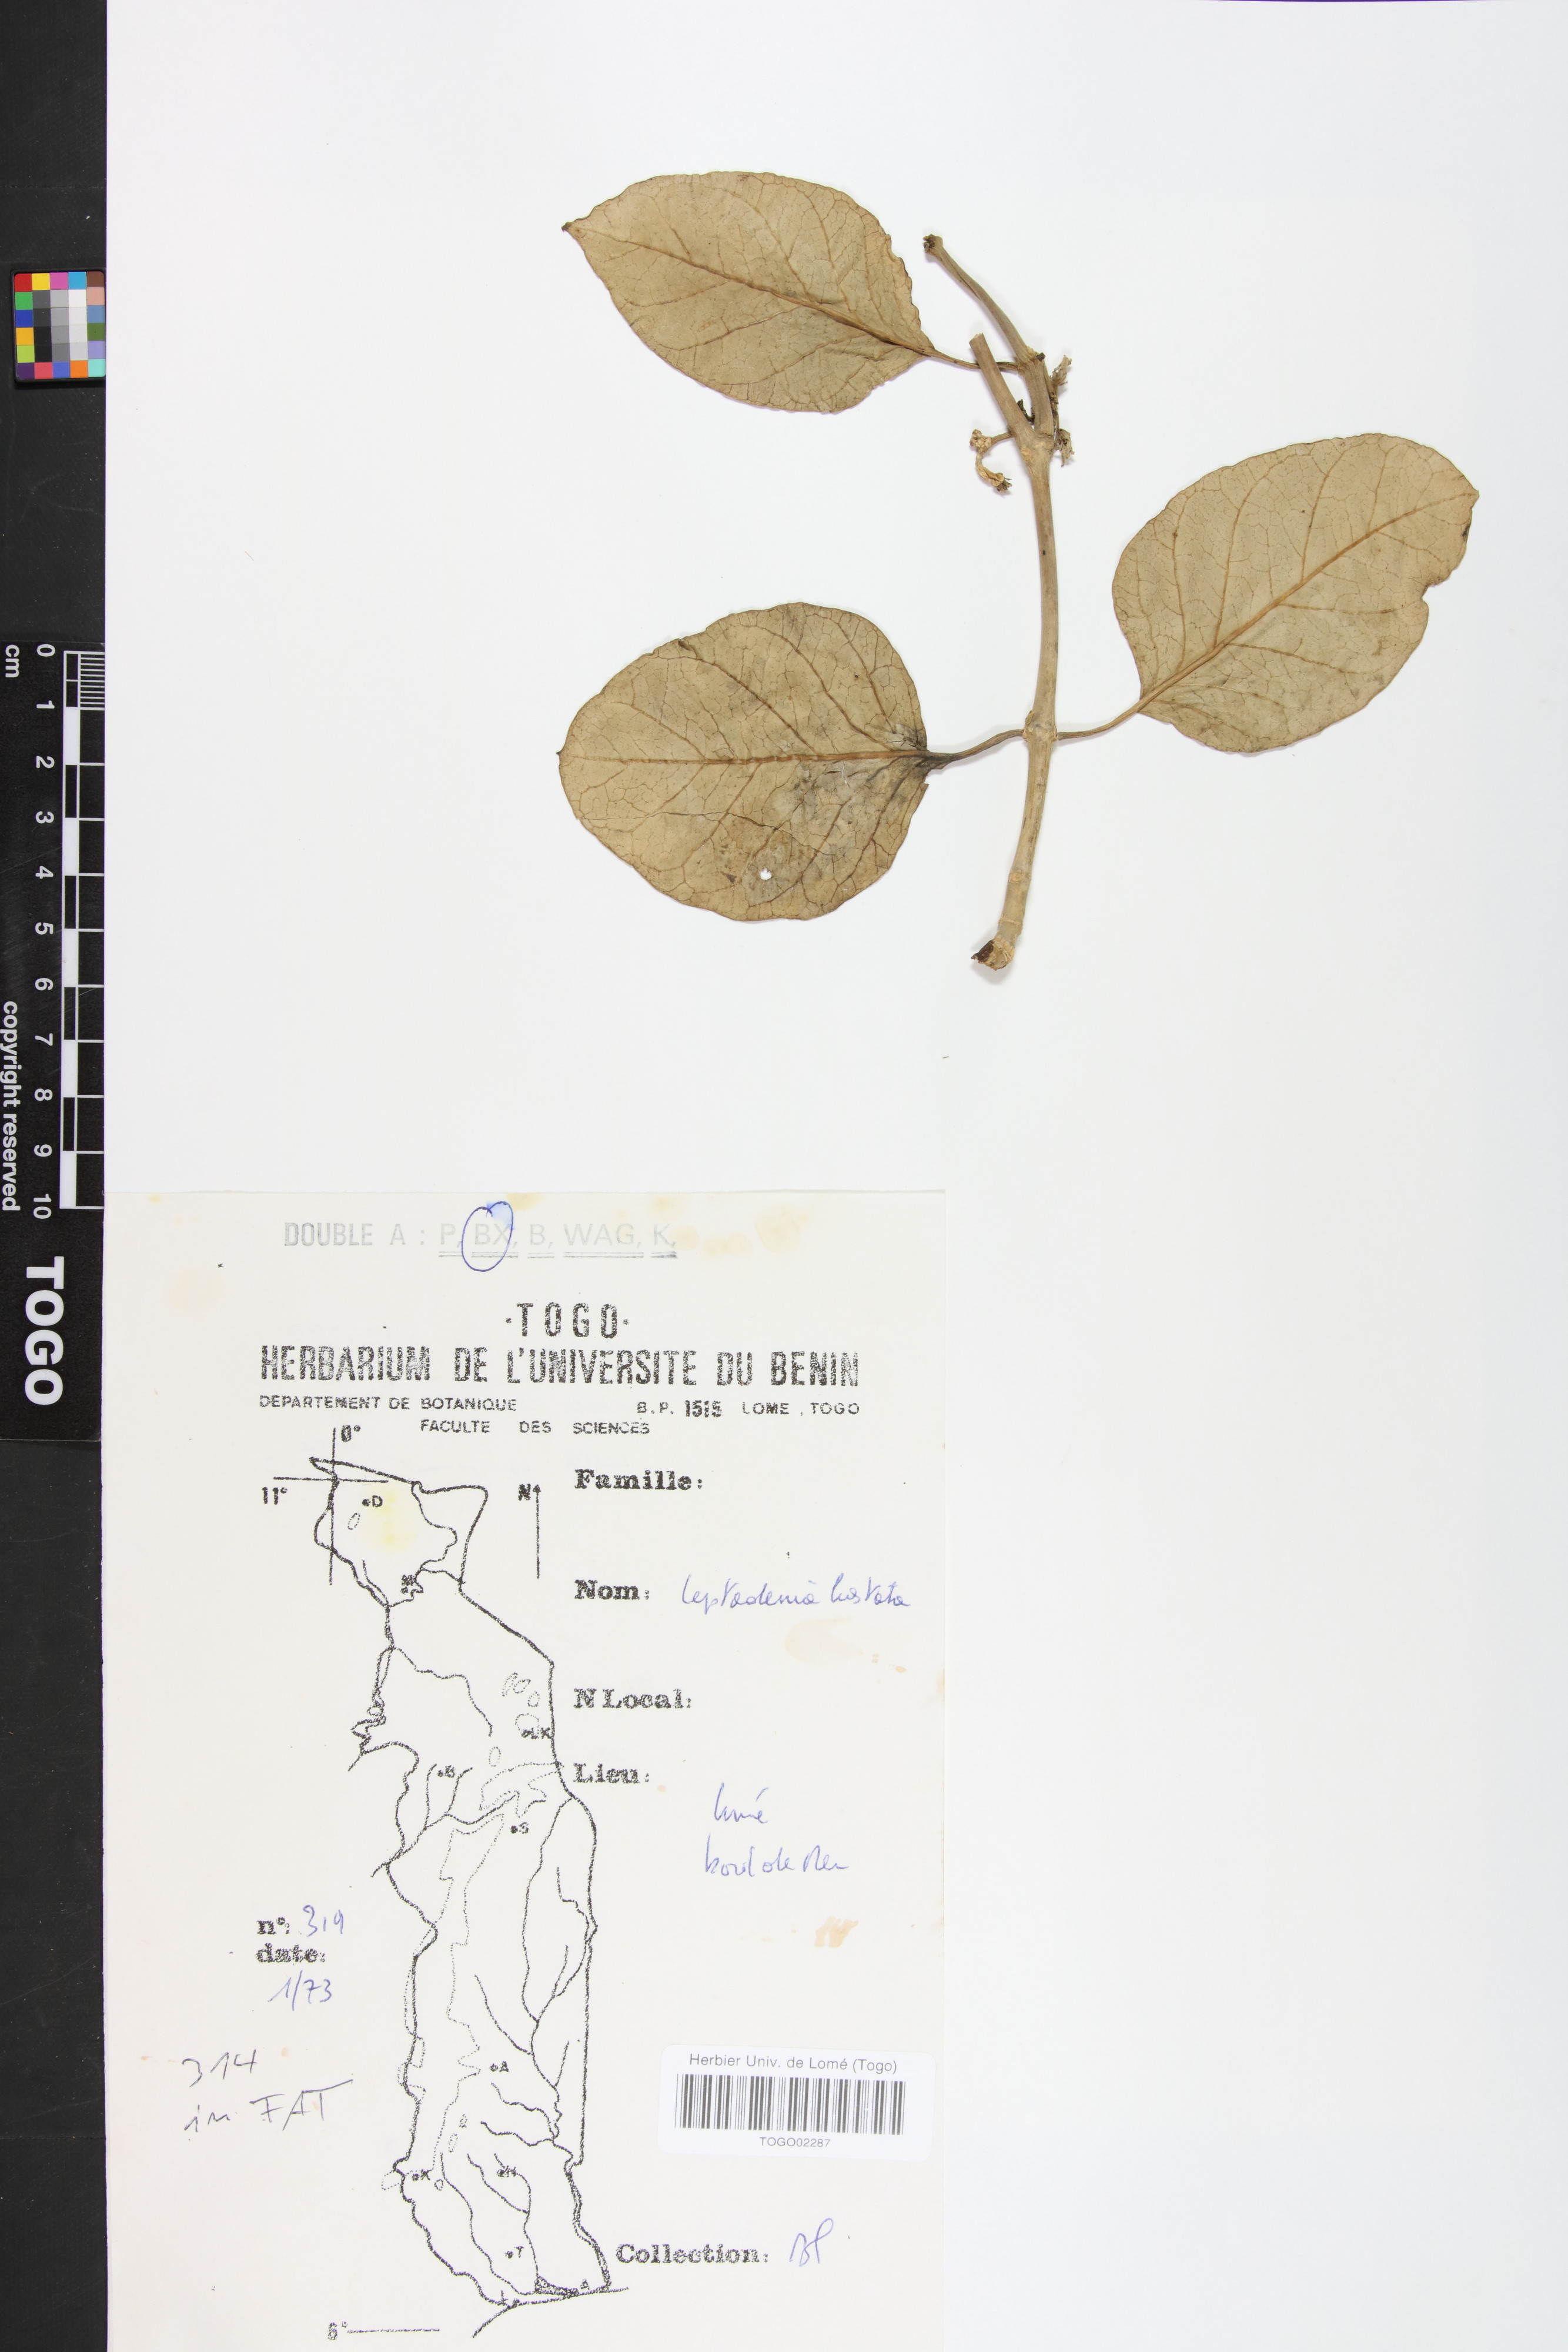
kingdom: Plantae
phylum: Tracheophyta
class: Magnoliopsida
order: Gentianales
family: Apocynaceae
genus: Leptadenia
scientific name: Leptadenia lanceolata
